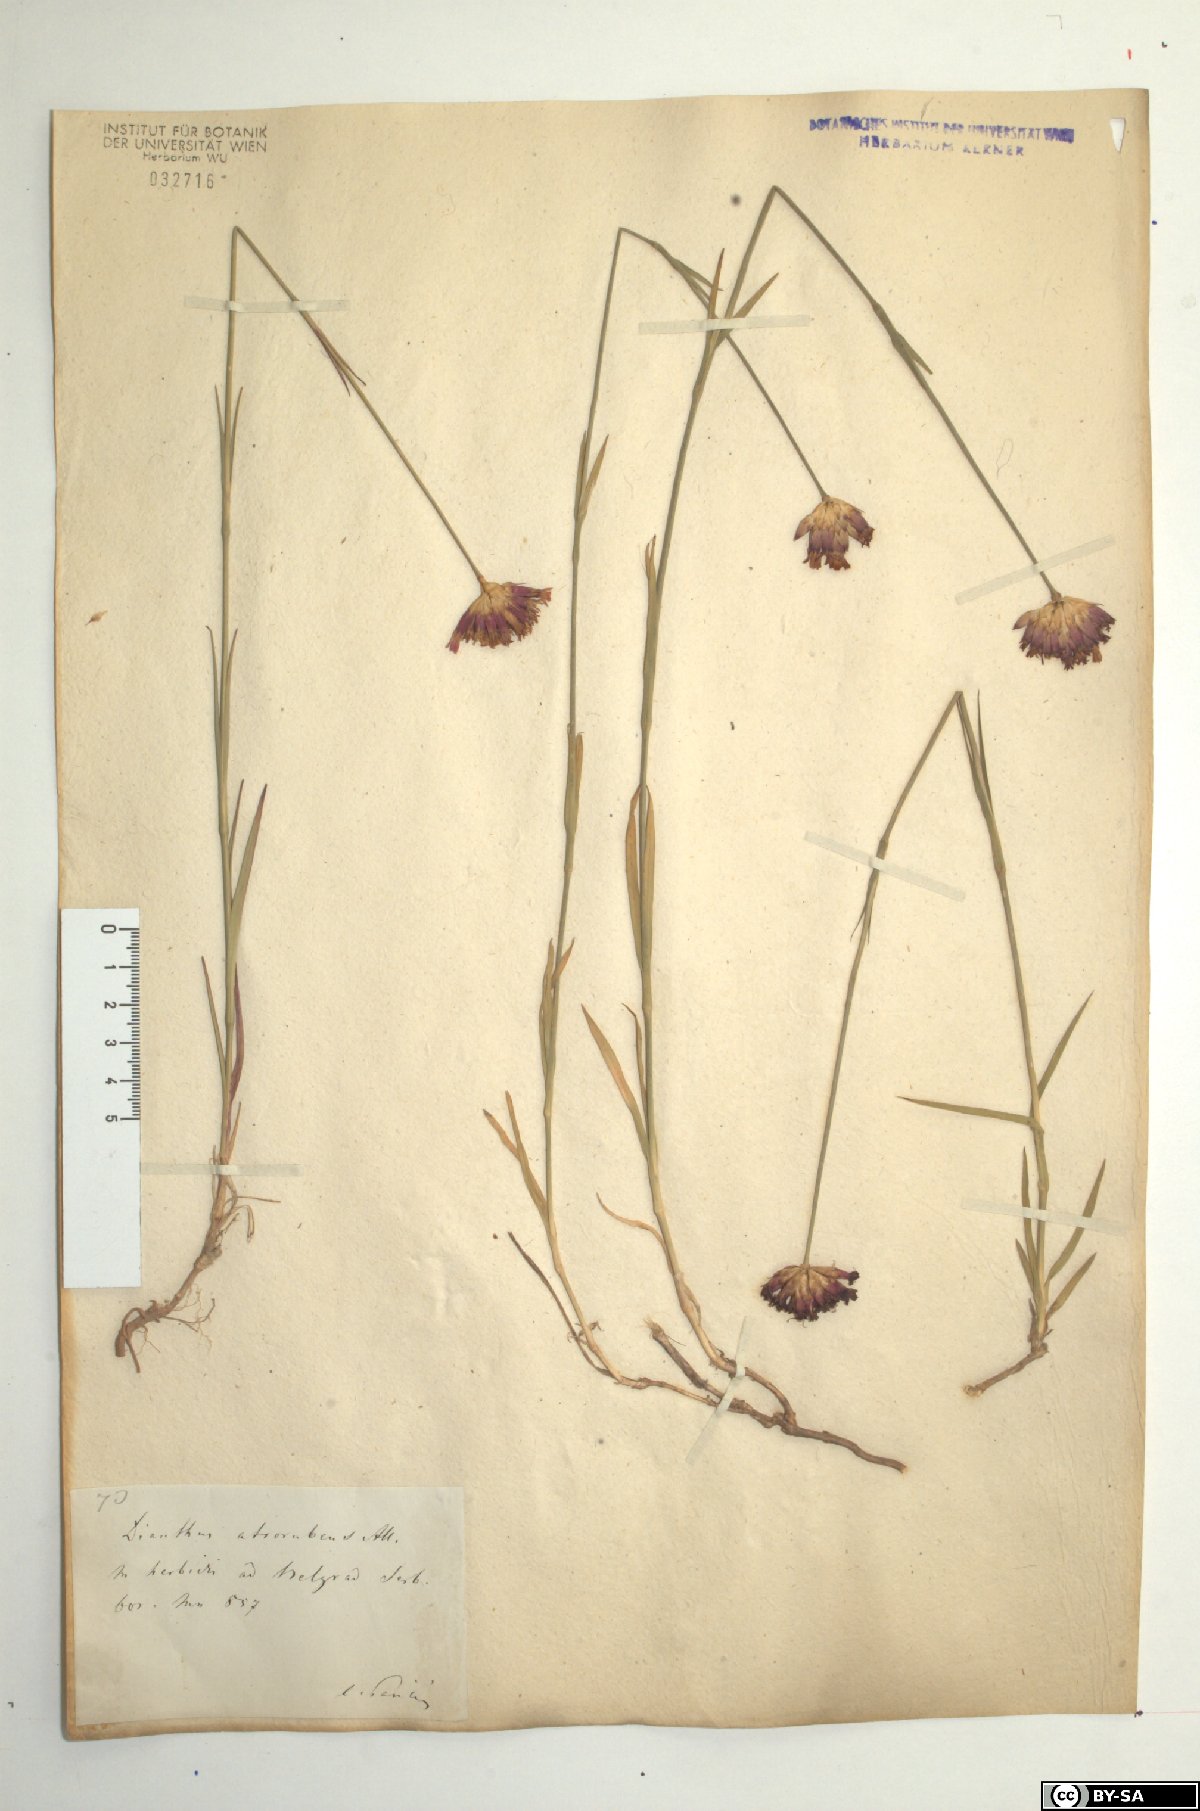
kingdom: Plantae
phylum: Tracheophyta
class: Magnoliopsida
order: Caryophyllales
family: Caryophyllaceae
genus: Dianthus
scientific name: Dianthus carthusianorum
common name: Carthusian pink
